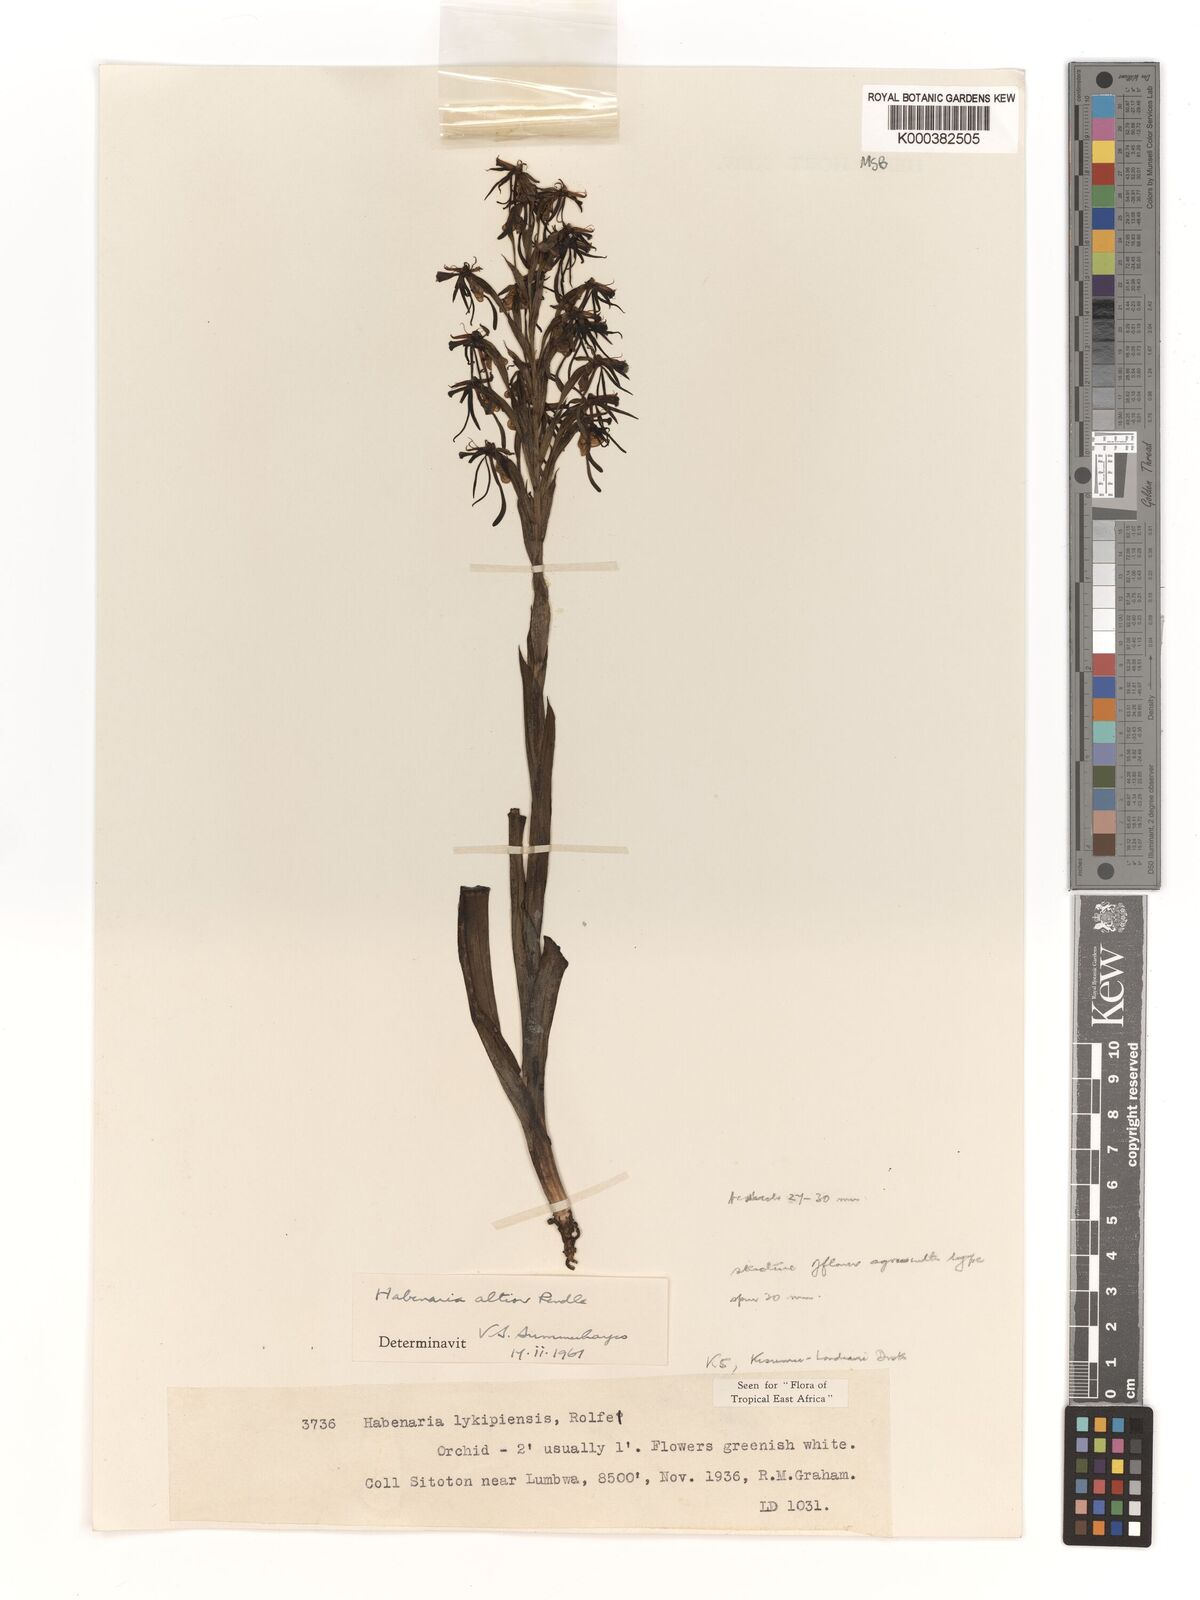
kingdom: Plantae
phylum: Tracheophyta
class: Liliopsida
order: Asparagales
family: Orchidaceae
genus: Habenaria
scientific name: Habenaria altior
